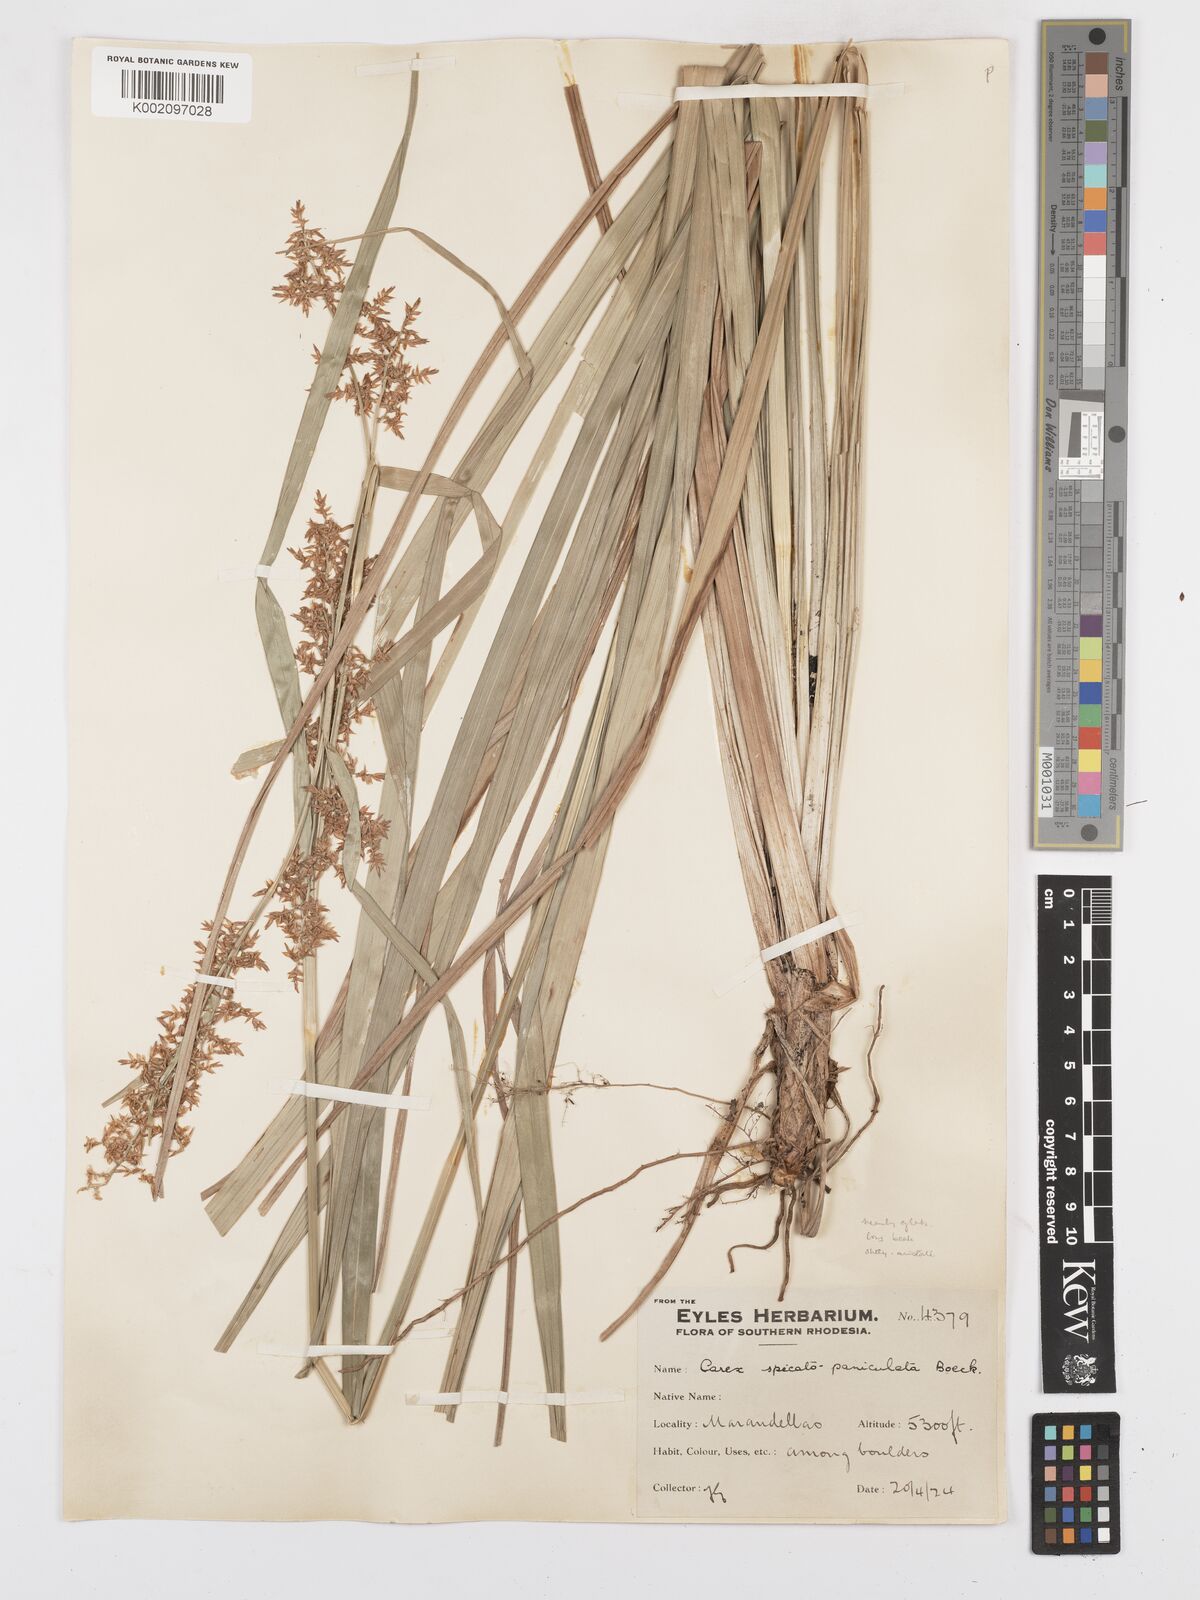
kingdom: Plantae
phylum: Tracheophyta
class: Liliopsida
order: Poales
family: Cyperaceae
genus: Carex
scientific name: Carex spicatopaniculata
